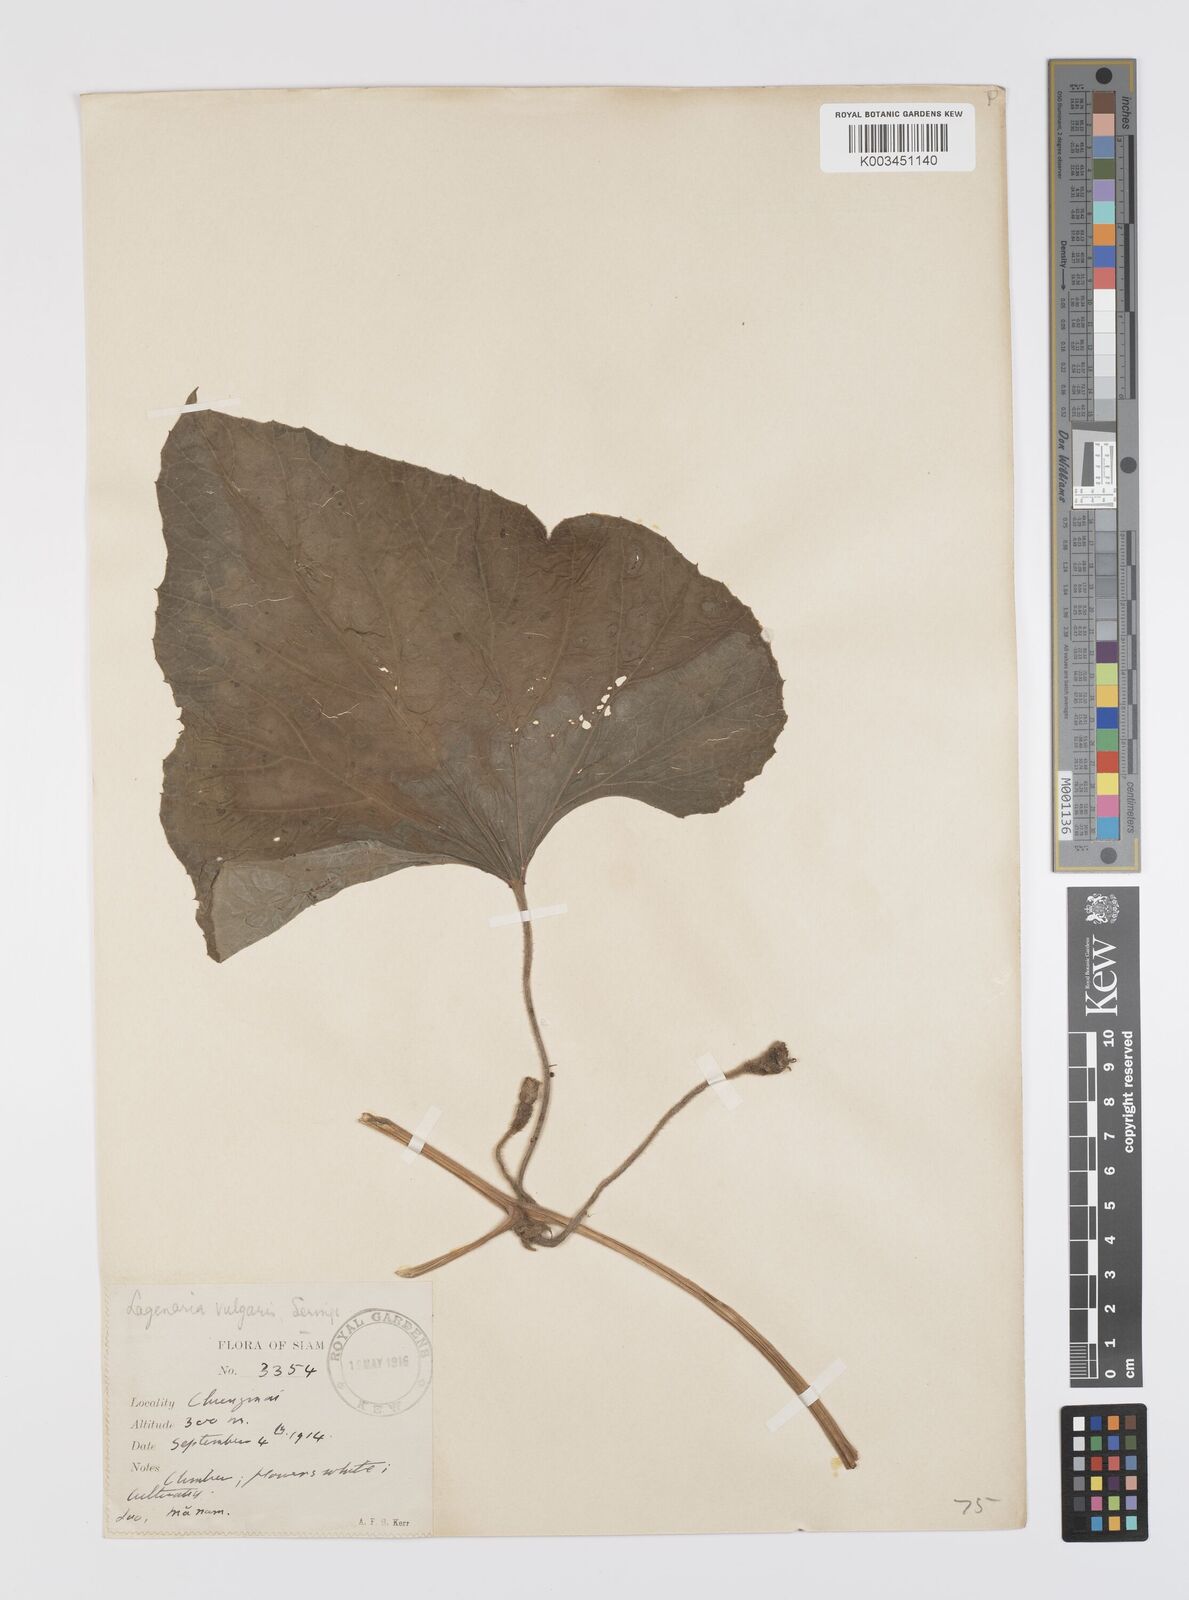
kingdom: Plantae
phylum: Tracheophyta
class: Magnoliopsida
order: Cucurbitales
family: Cucurbitaceae
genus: Lagenaria
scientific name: Lagenaria siceraria
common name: Bottle gourd
